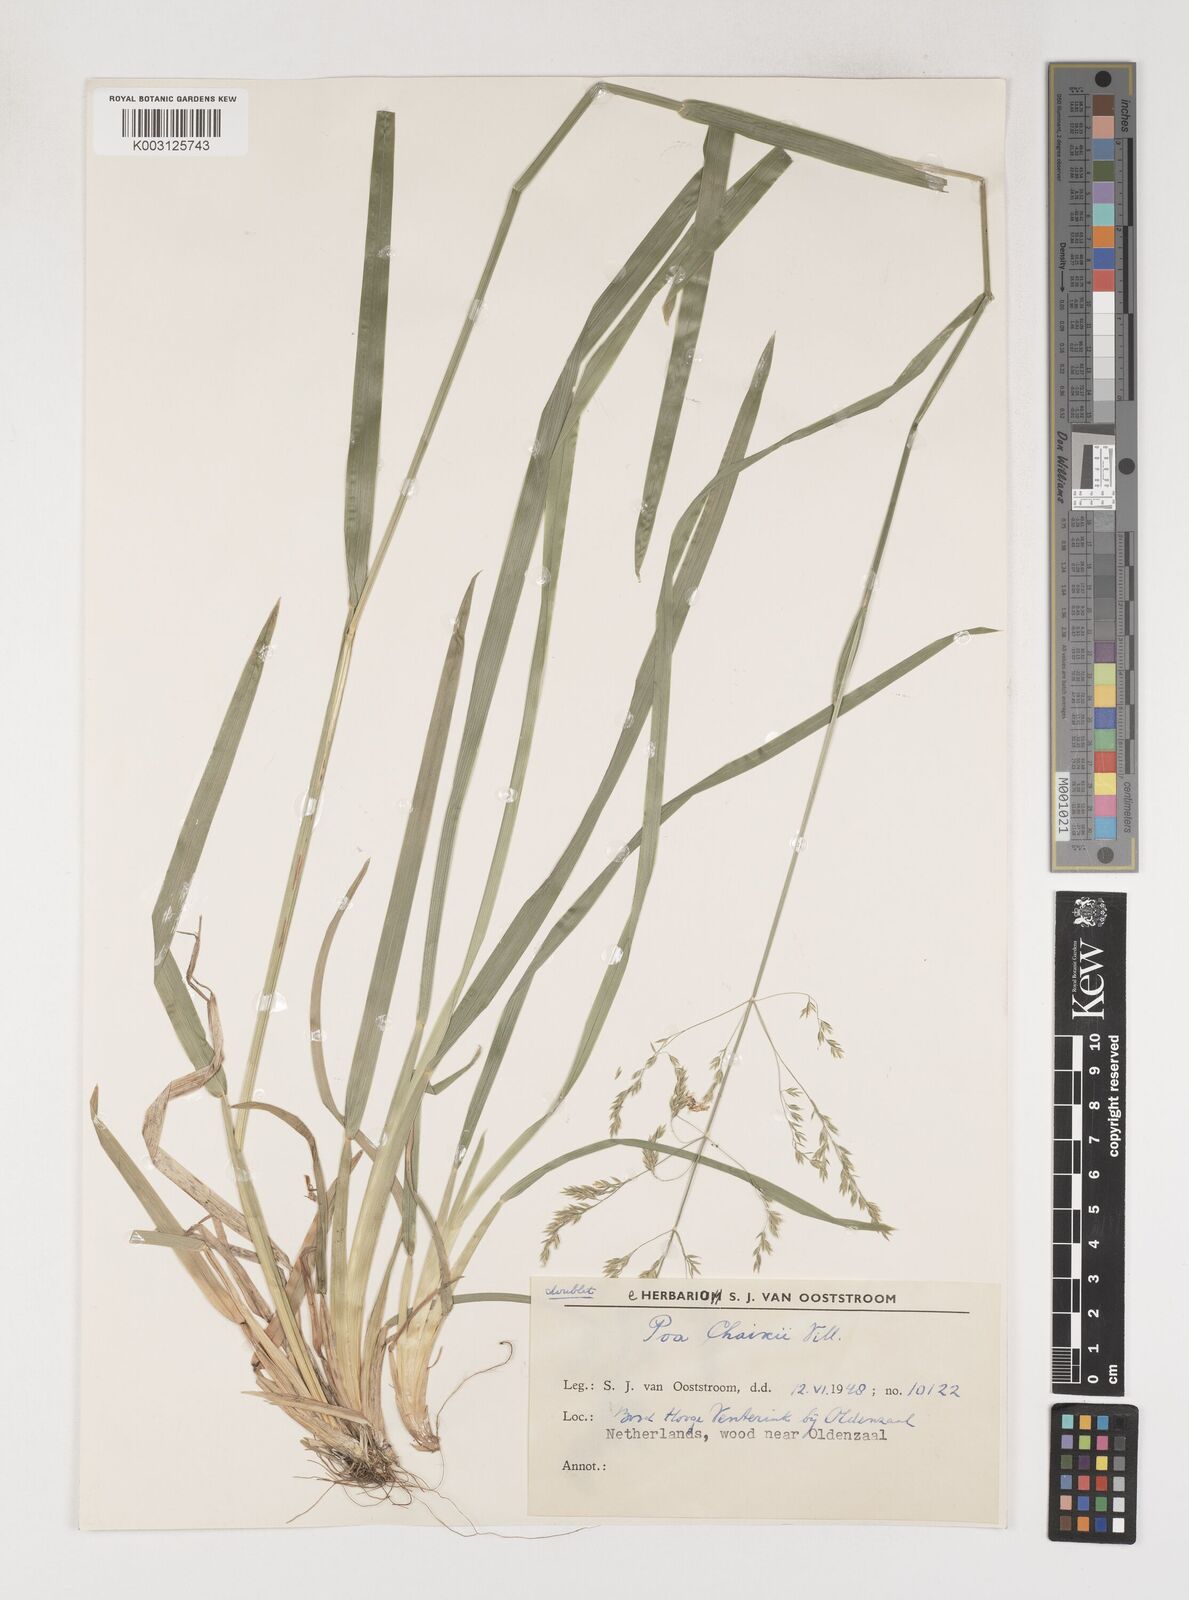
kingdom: Plantae
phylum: Tracheophyta
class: Liliopsida
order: Poales
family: Poaceae
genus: Poa
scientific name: Poa chaixii
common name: Broad-leaved meadow-grass
